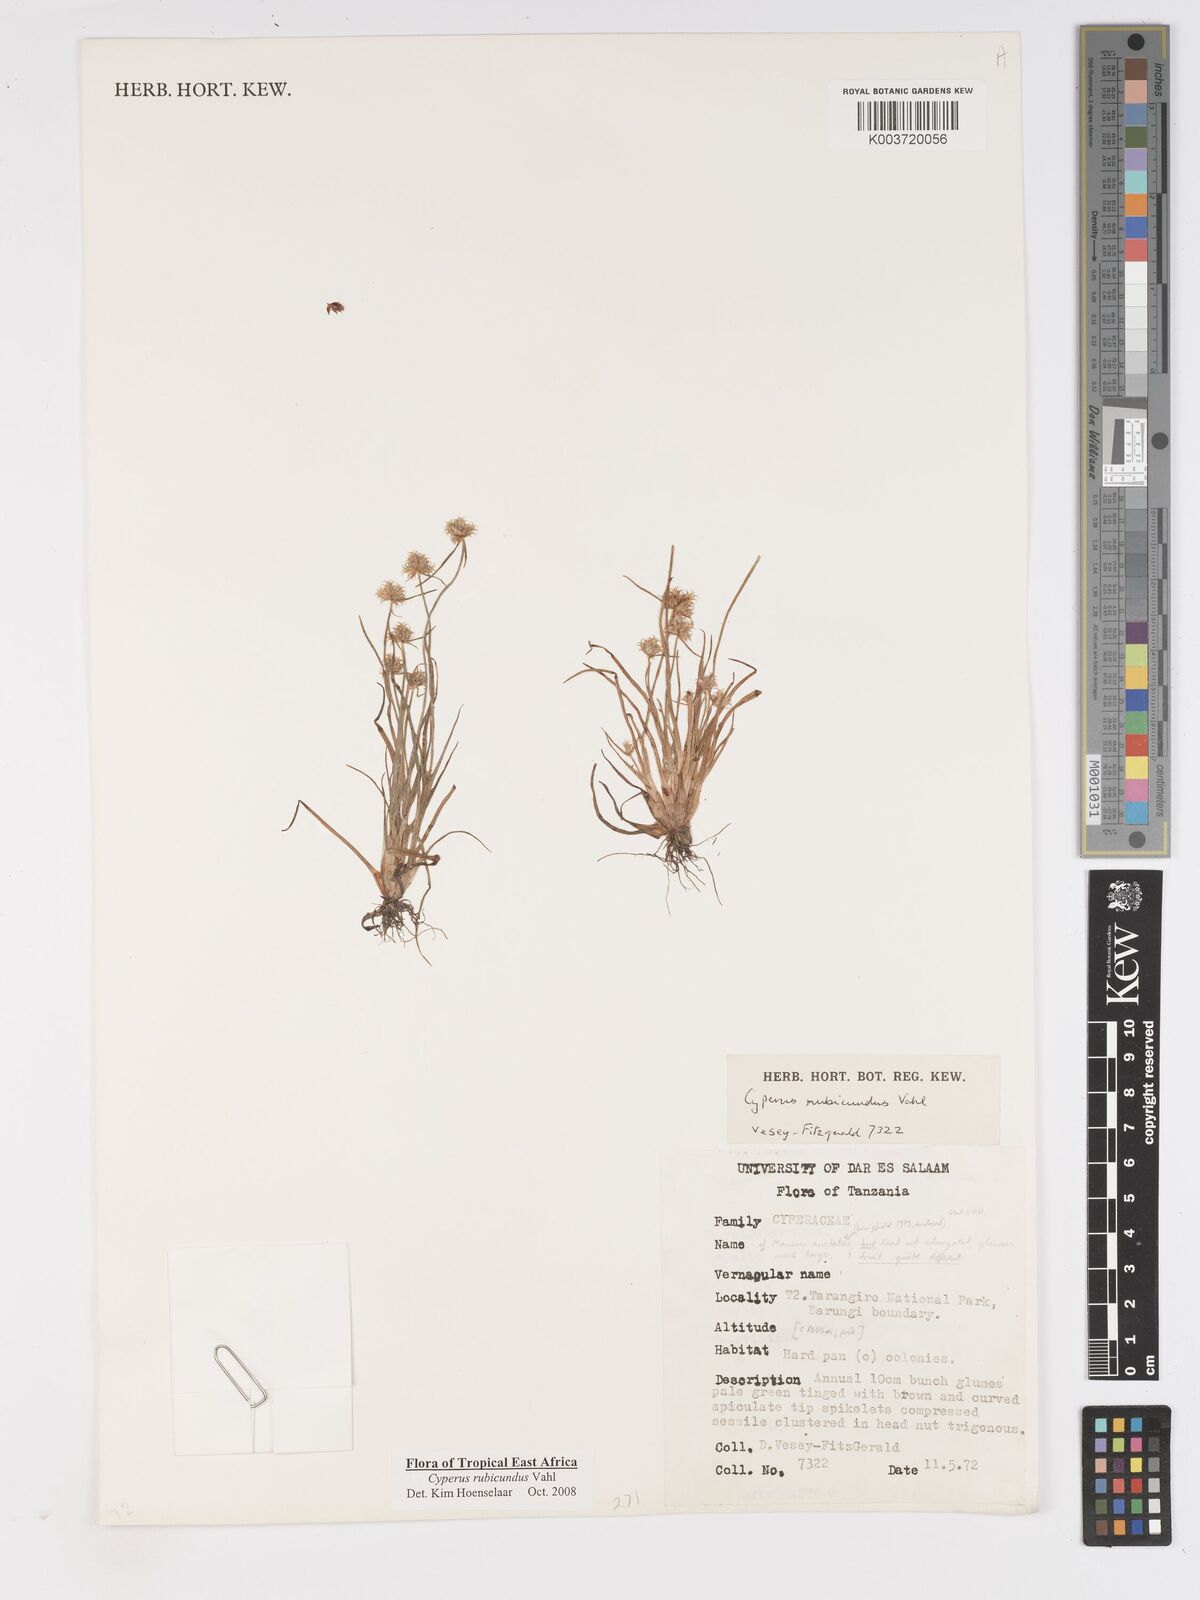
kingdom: Plantae
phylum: Tracheophyta
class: Liliopsida
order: Poales
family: Cyperaceae
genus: Cyperus
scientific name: Cyperus rubicundus
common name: Coco-grass
